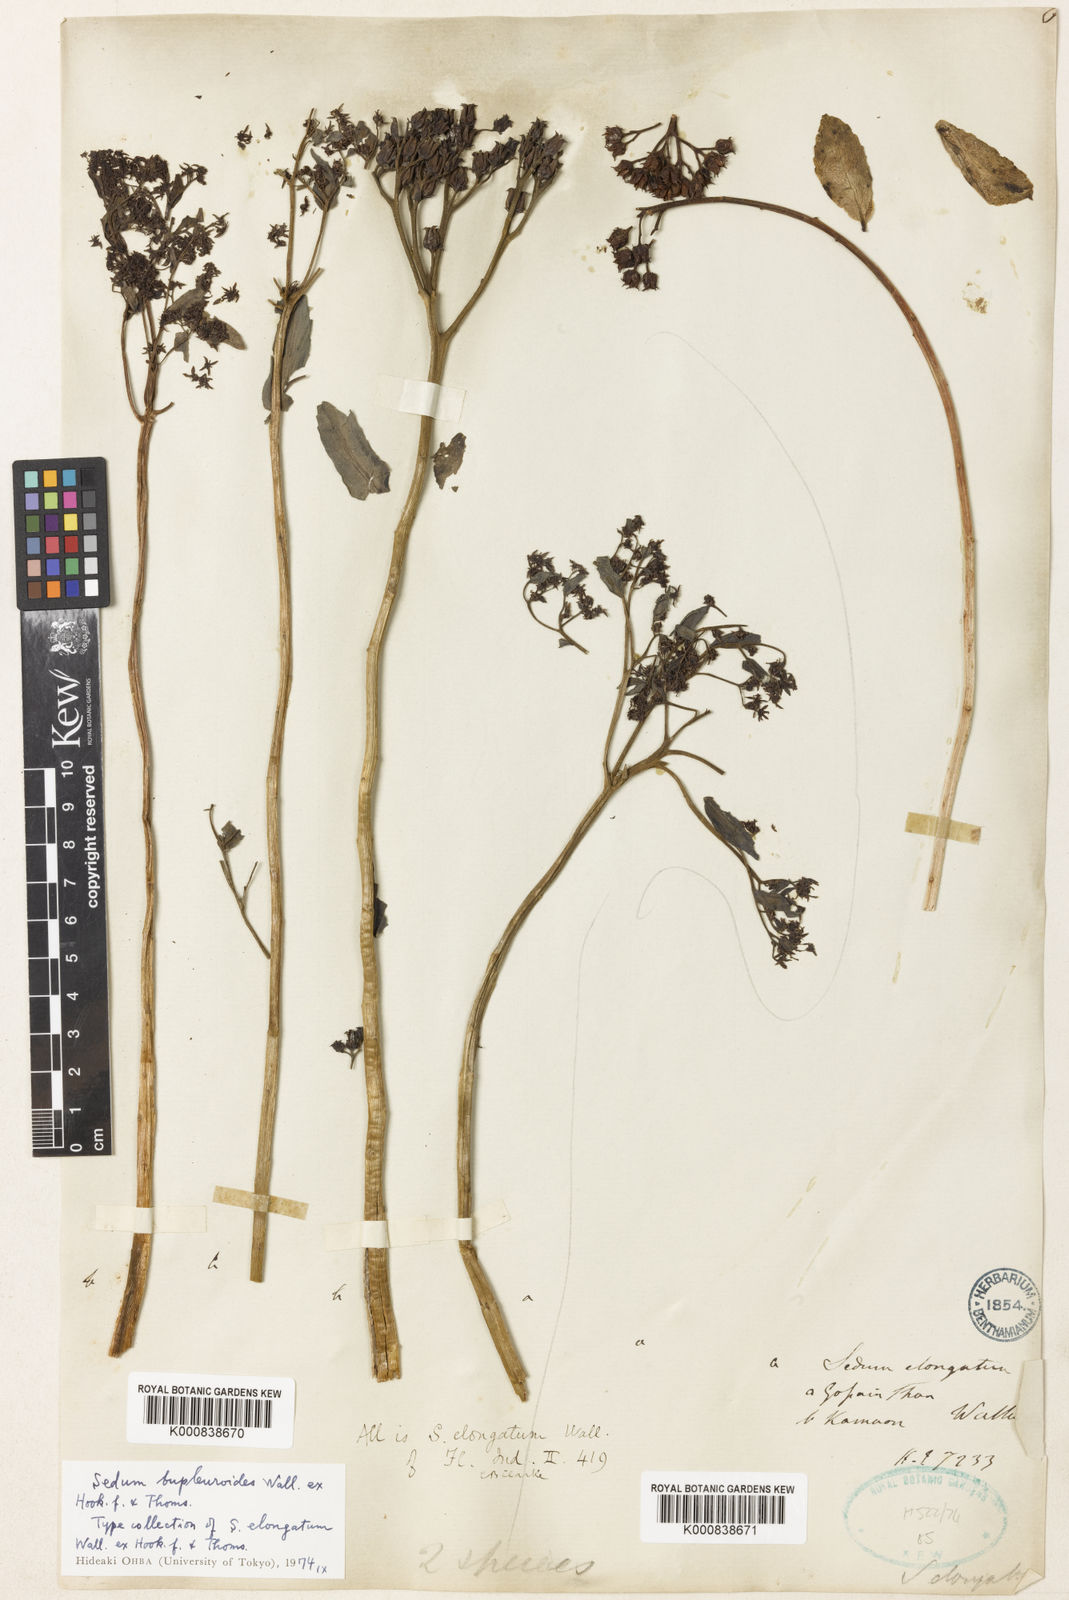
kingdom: Plantae
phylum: Tracheophyta
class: Magnoliopsida
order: Saxifragales
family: Crassulaceae
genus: Rhodiola
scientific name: Rhodiola bupleuroides
